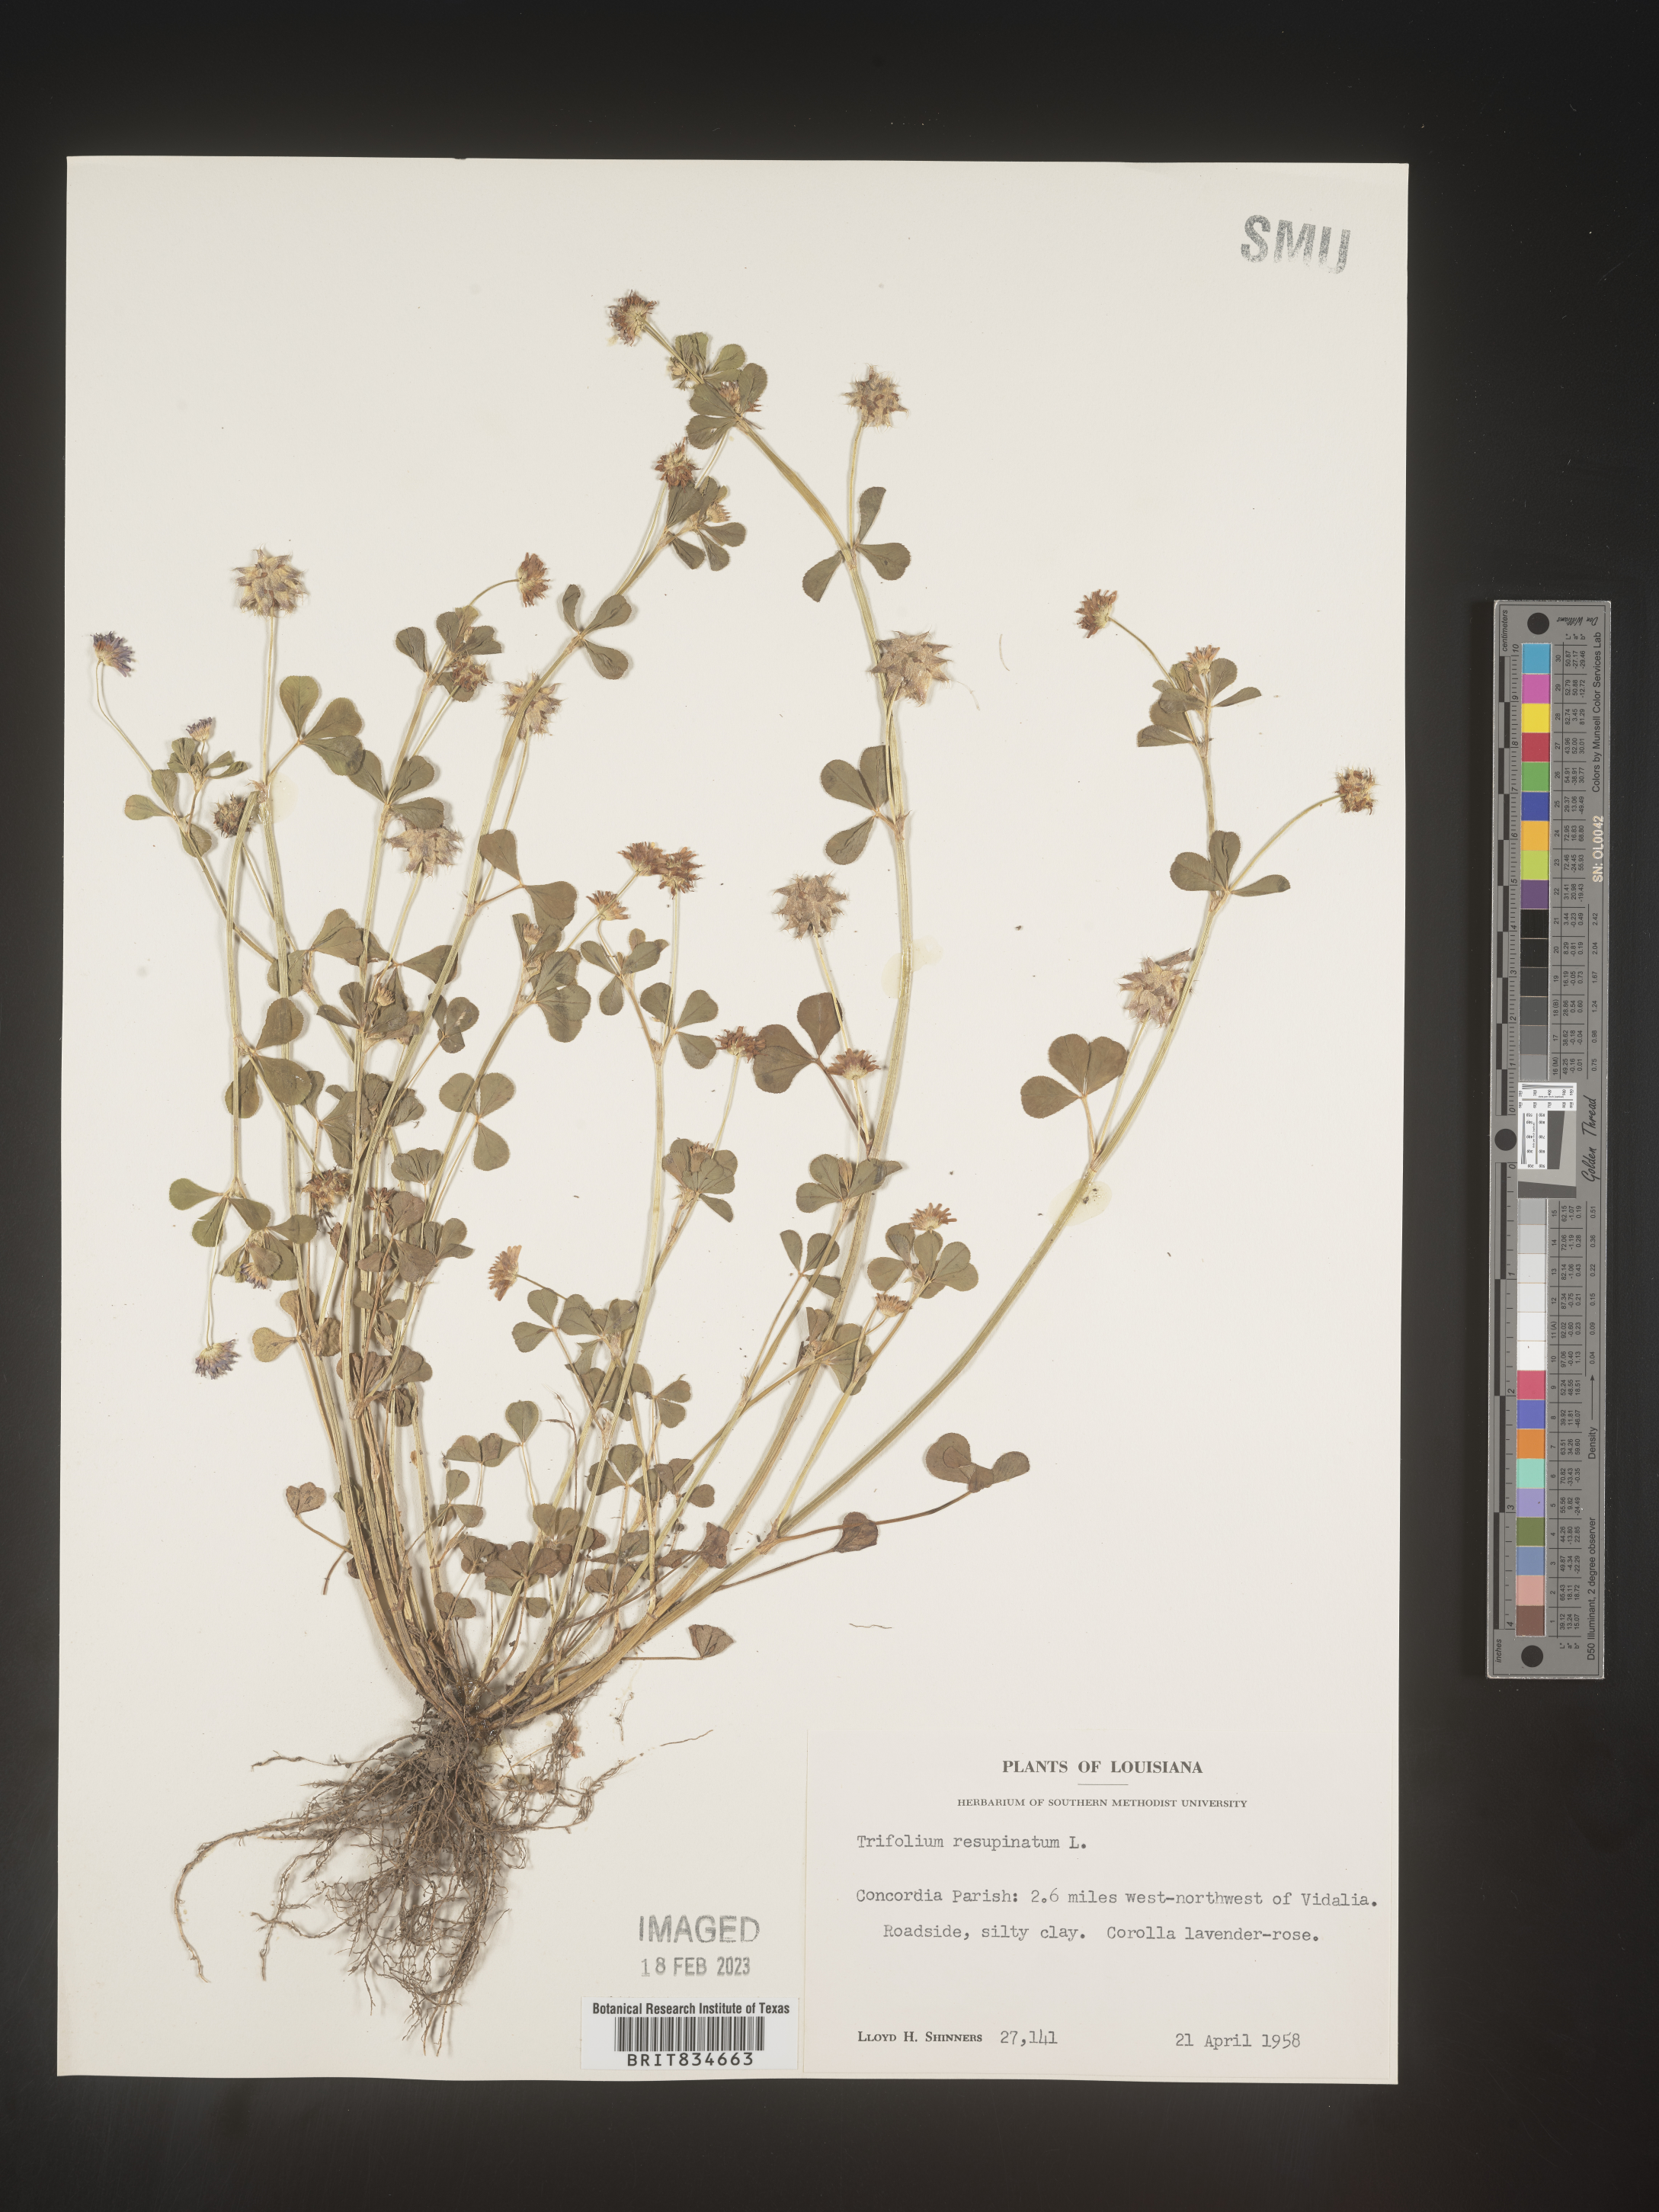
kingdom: Plantae
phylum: Tracheophyta
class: Magnoliopsida
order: Fabales
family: Fabaceae
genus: Trifolium
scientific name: Trifolium resupinatum
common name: Reversed clover
